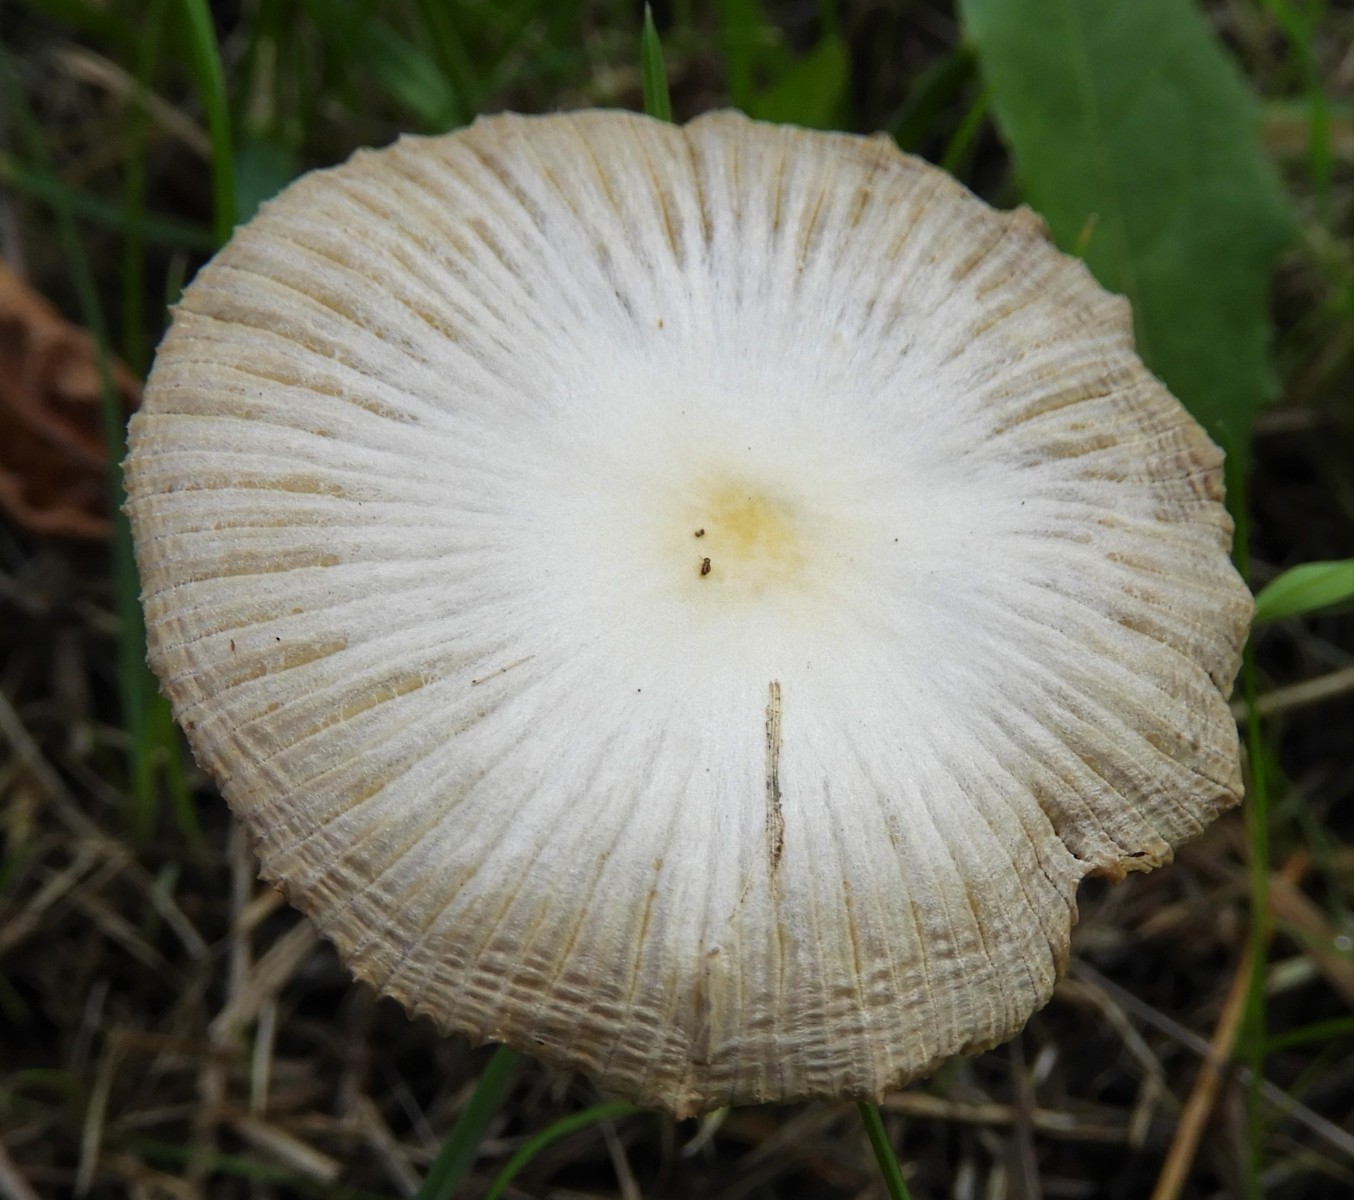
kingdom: Fungi
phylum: Basidiomycota
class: Agaricomycetes
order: Agaricales
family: Bolbitiaceae
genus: Bolbitius
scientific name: Bolbitius titubans
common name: almindelig gulhat
